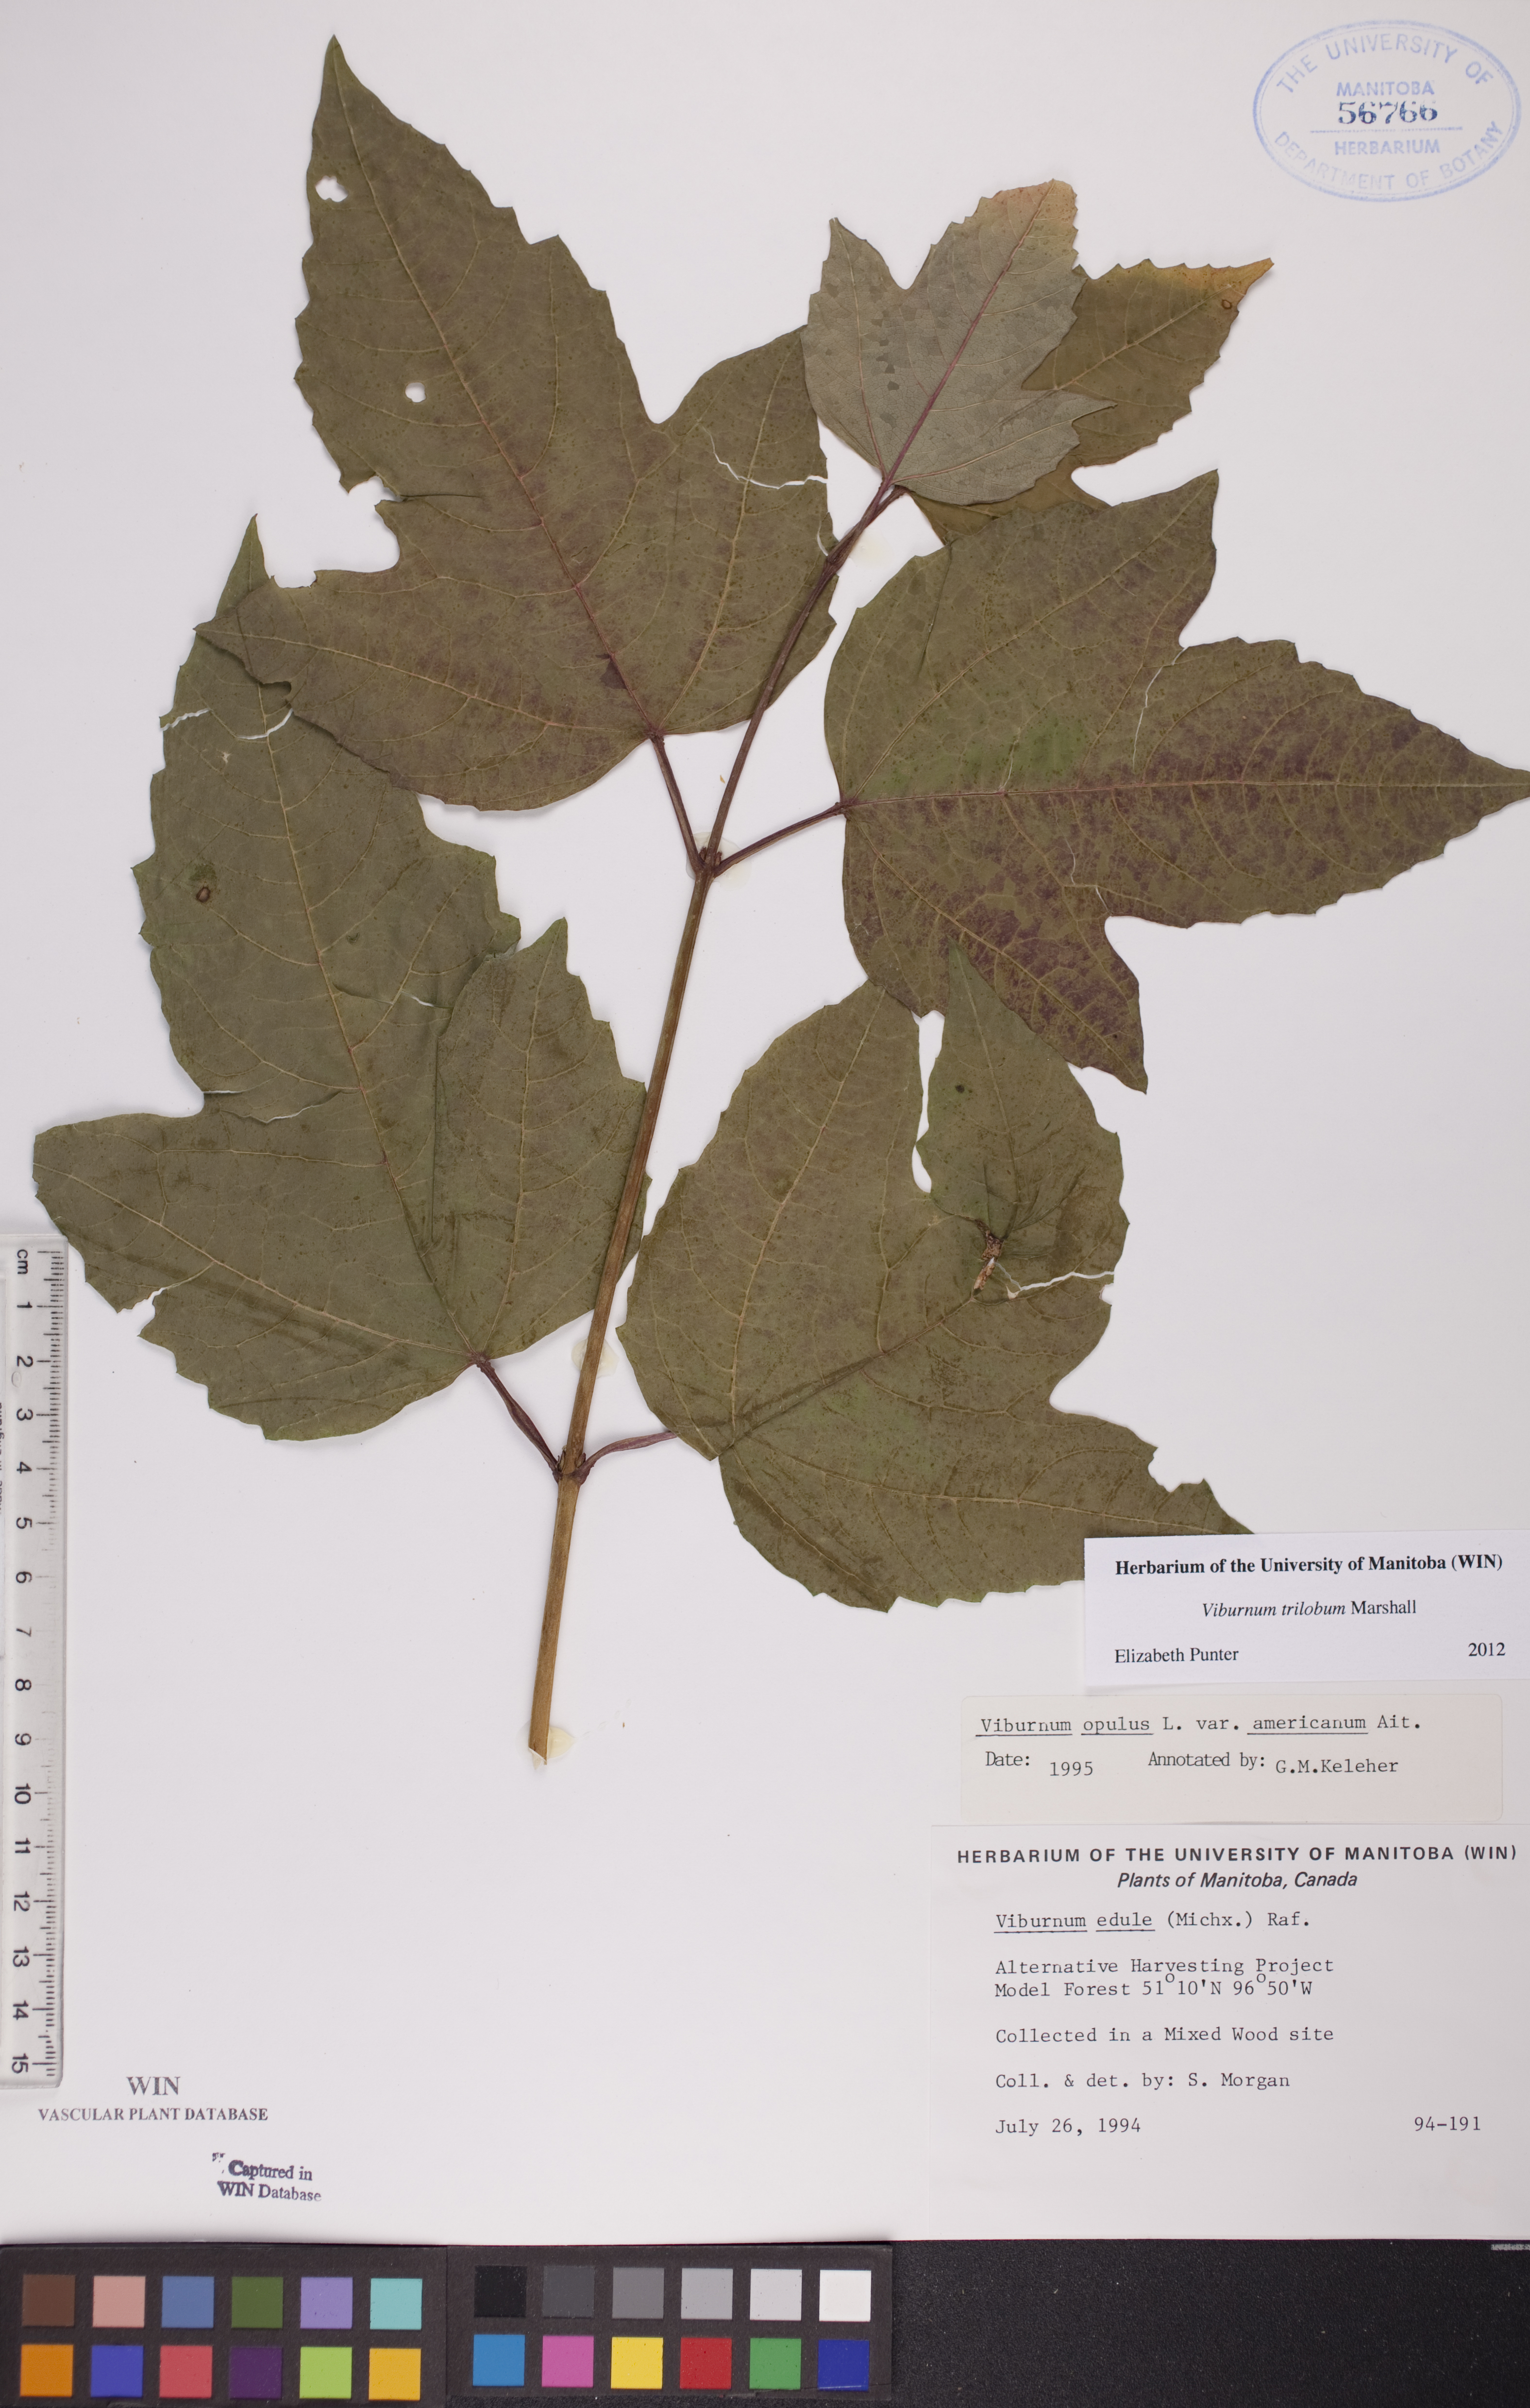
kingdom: Plantae
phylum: Tracheophyta
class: Magnoliopsida
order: Dipsacales
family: Viburnaceae
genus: Viburnum
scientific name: Viburnum trilobum
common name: American cranberrybush
